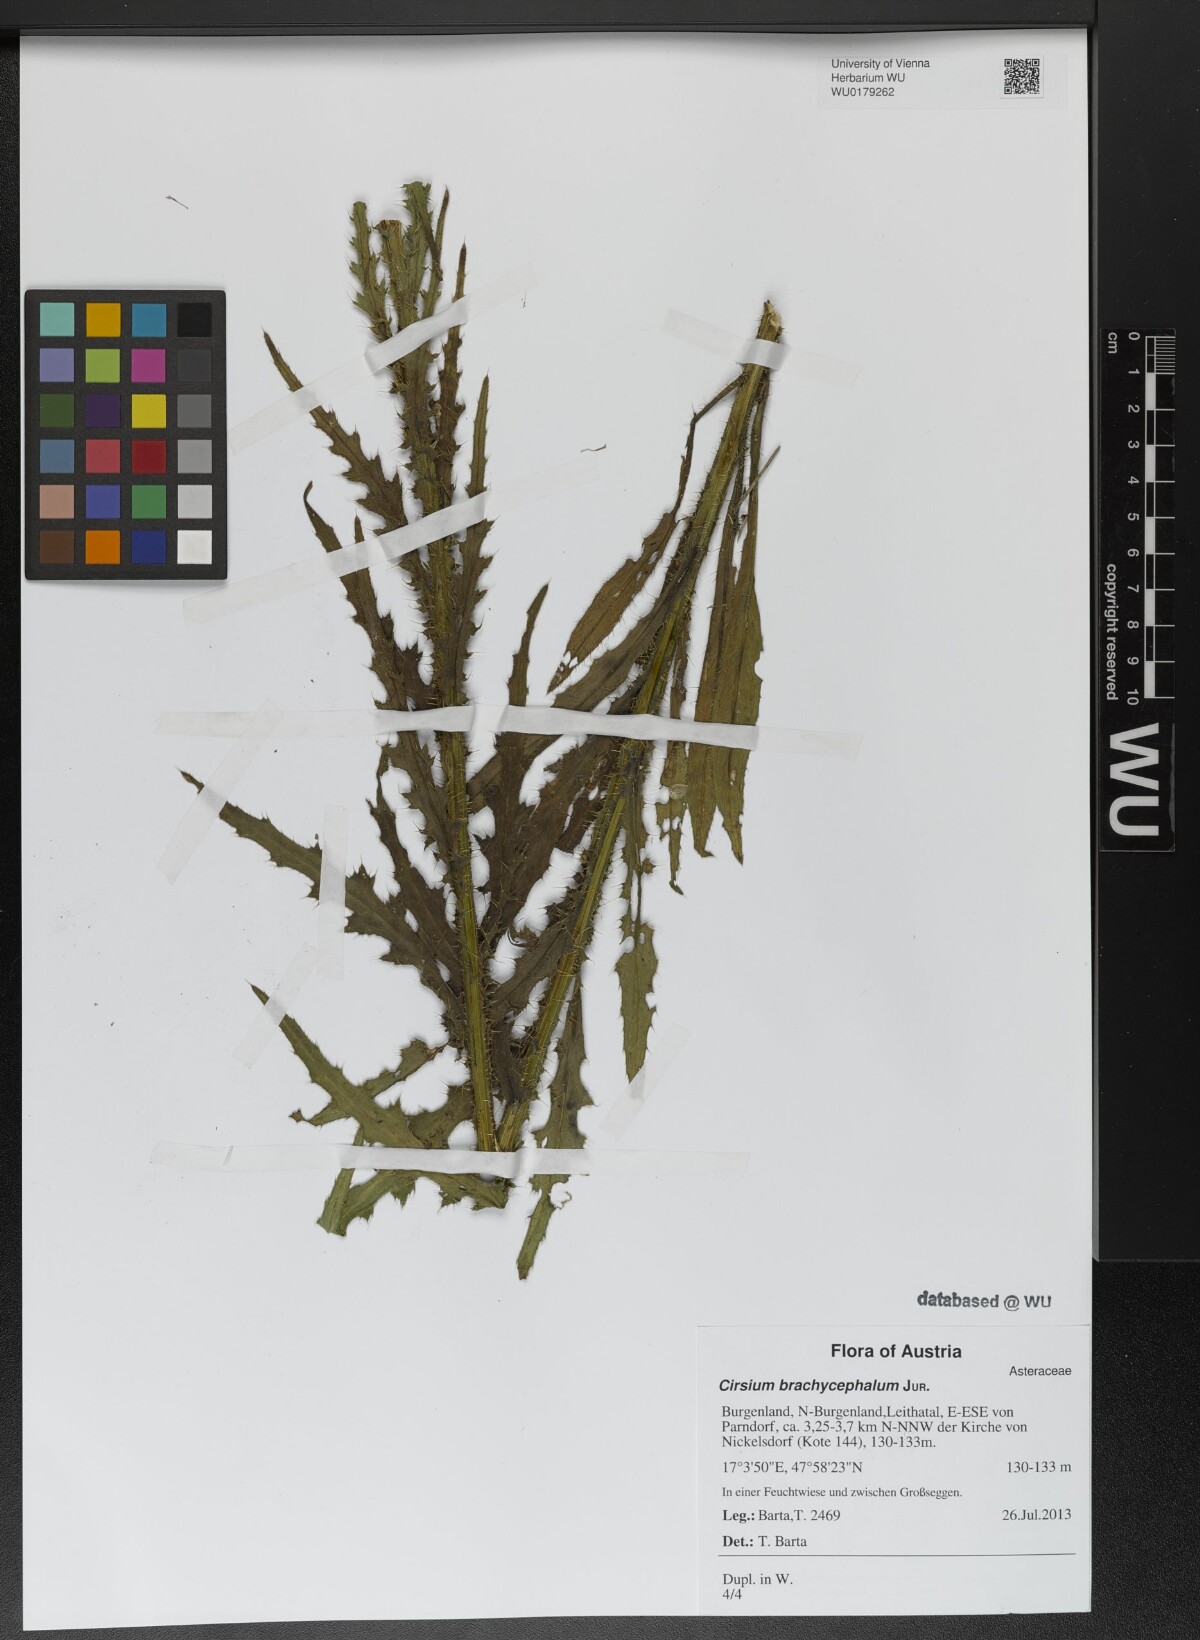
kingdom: Plantae
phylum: Tracheophyta
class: Magnoliopsida
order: Asterales
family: Asteraceae
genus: Cirsium
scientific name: Cirsium brachycephalum
